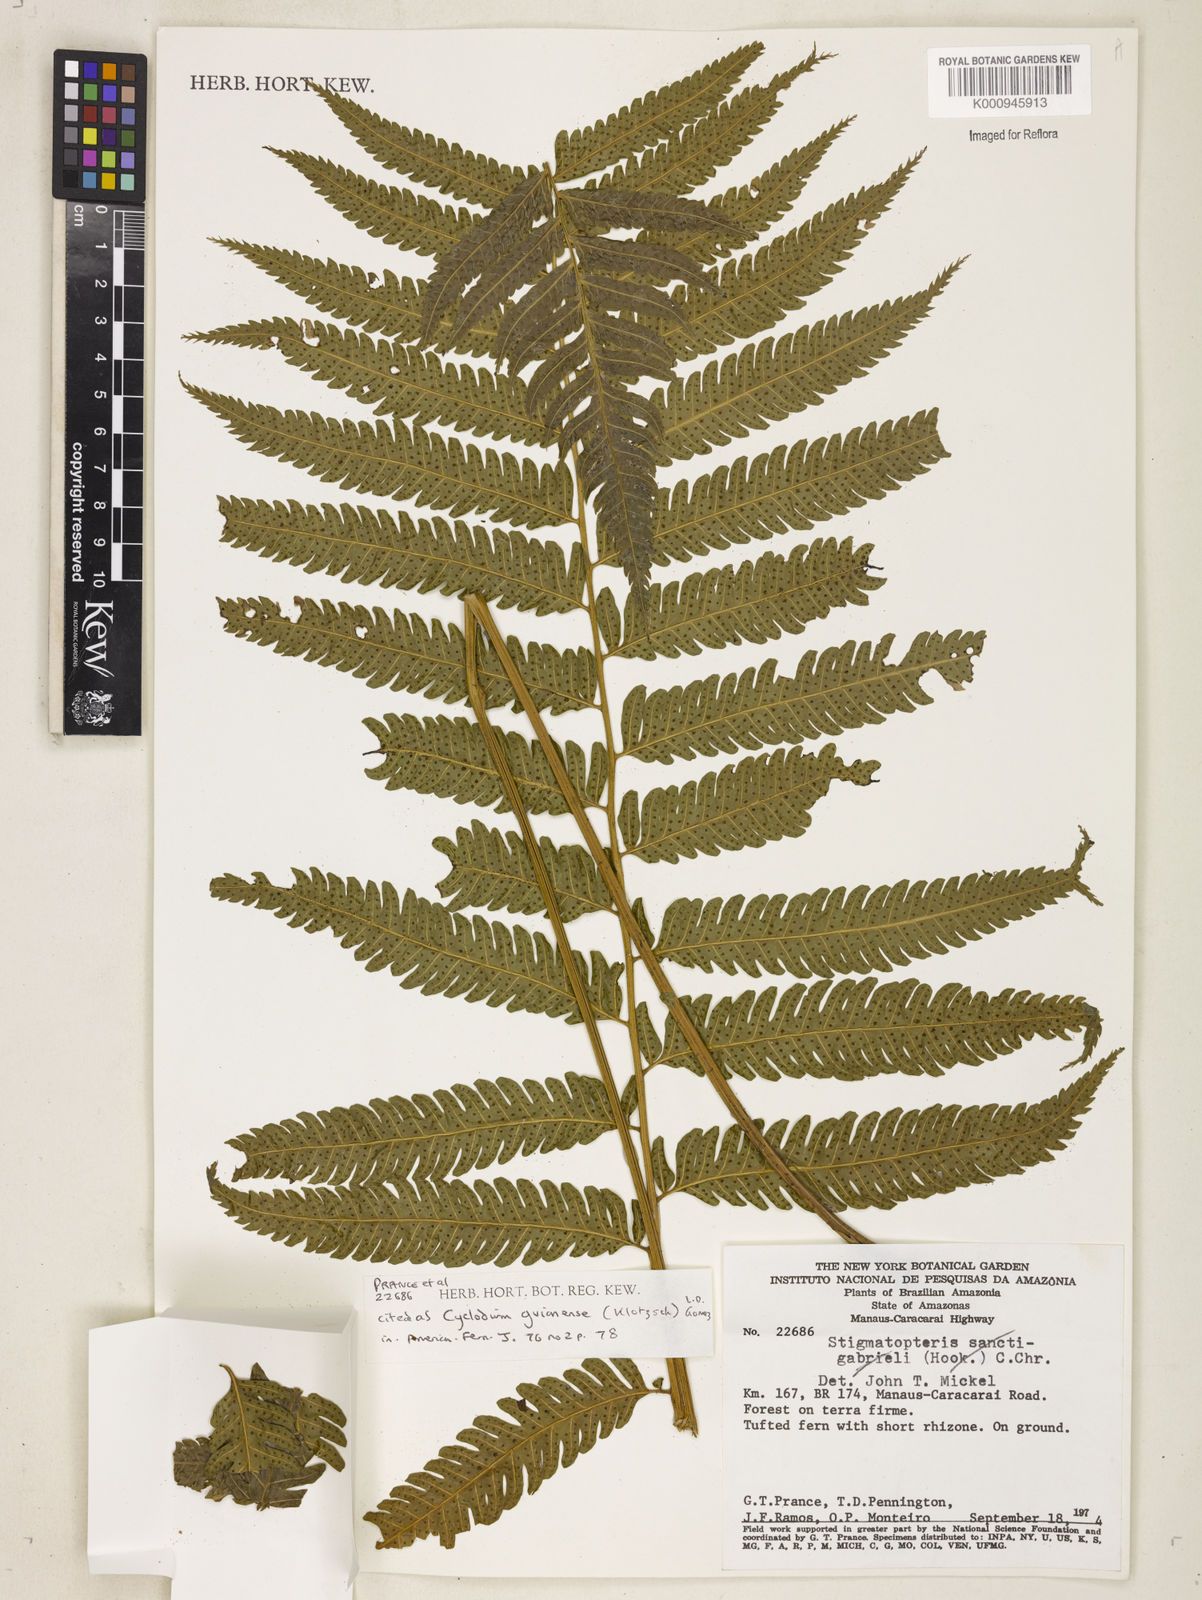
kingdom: Plantae
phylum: Tracheophyta
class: Polypodiopsida
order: Polypodiales
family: Dryopteridaceae
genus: Cyclodium
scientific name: Cyclodium
